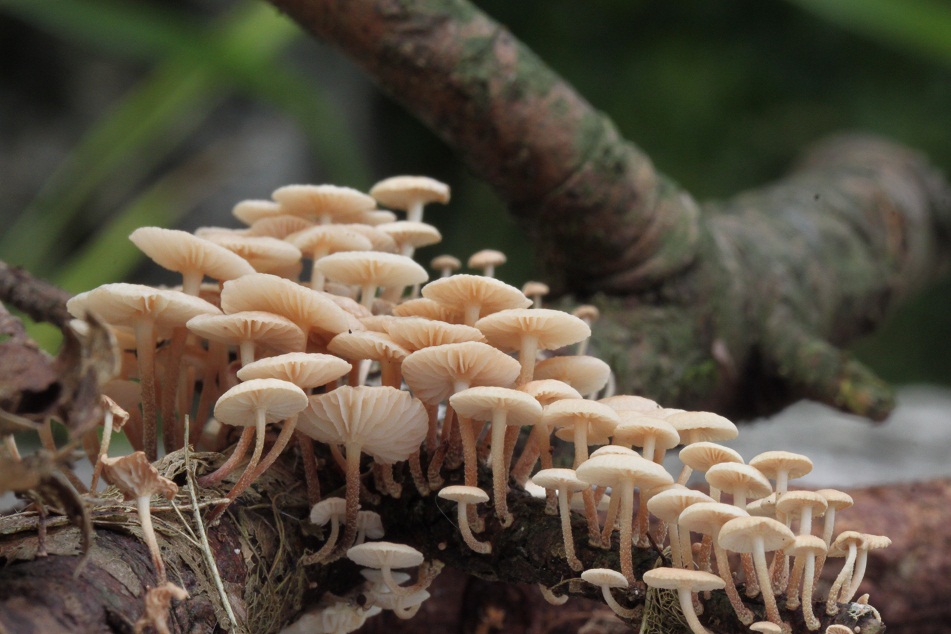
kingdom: Fungi
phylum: Basidiomycota
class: Agaricomycetes
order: Agaricales
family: Omphalotaceae
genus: Collybiopsis
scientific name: Collybiopsis ramealis
